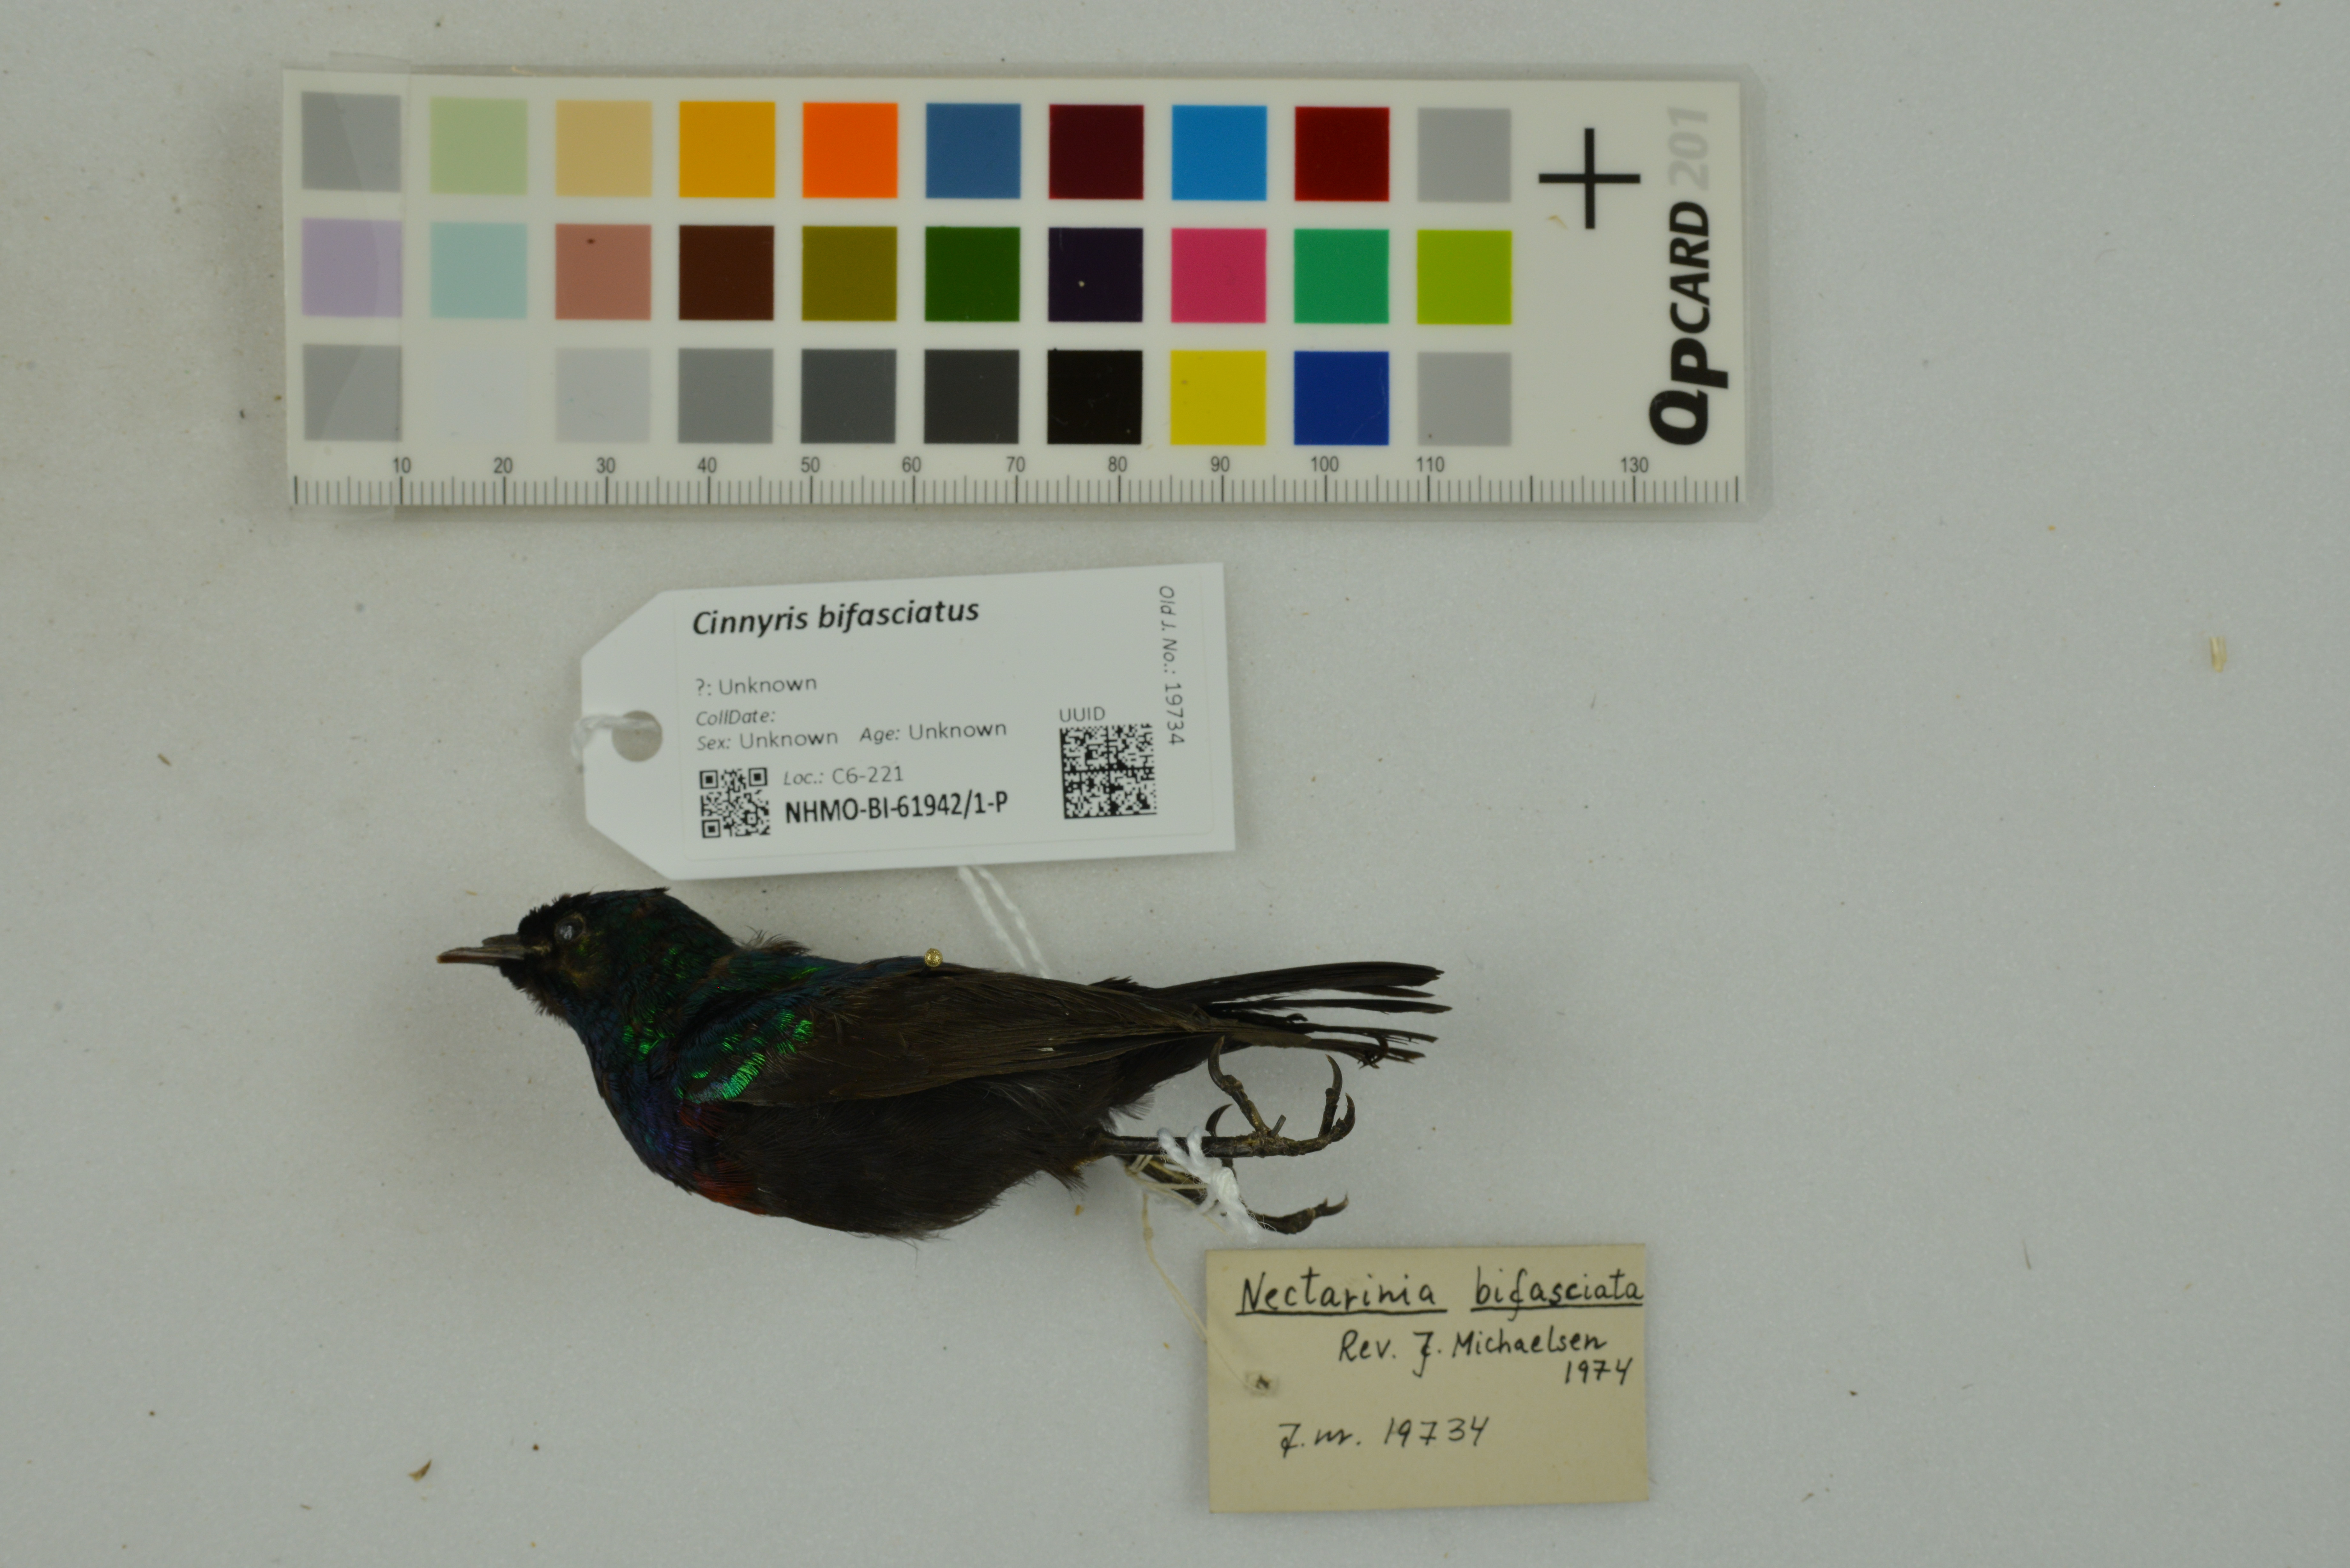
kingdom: Animalia
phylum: Chordata
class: Aves
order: Passeriformes
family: Nectariniidae
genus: Cinnyris
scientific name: Cinnyris bifasciatus
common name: Purple-banded sunbird
